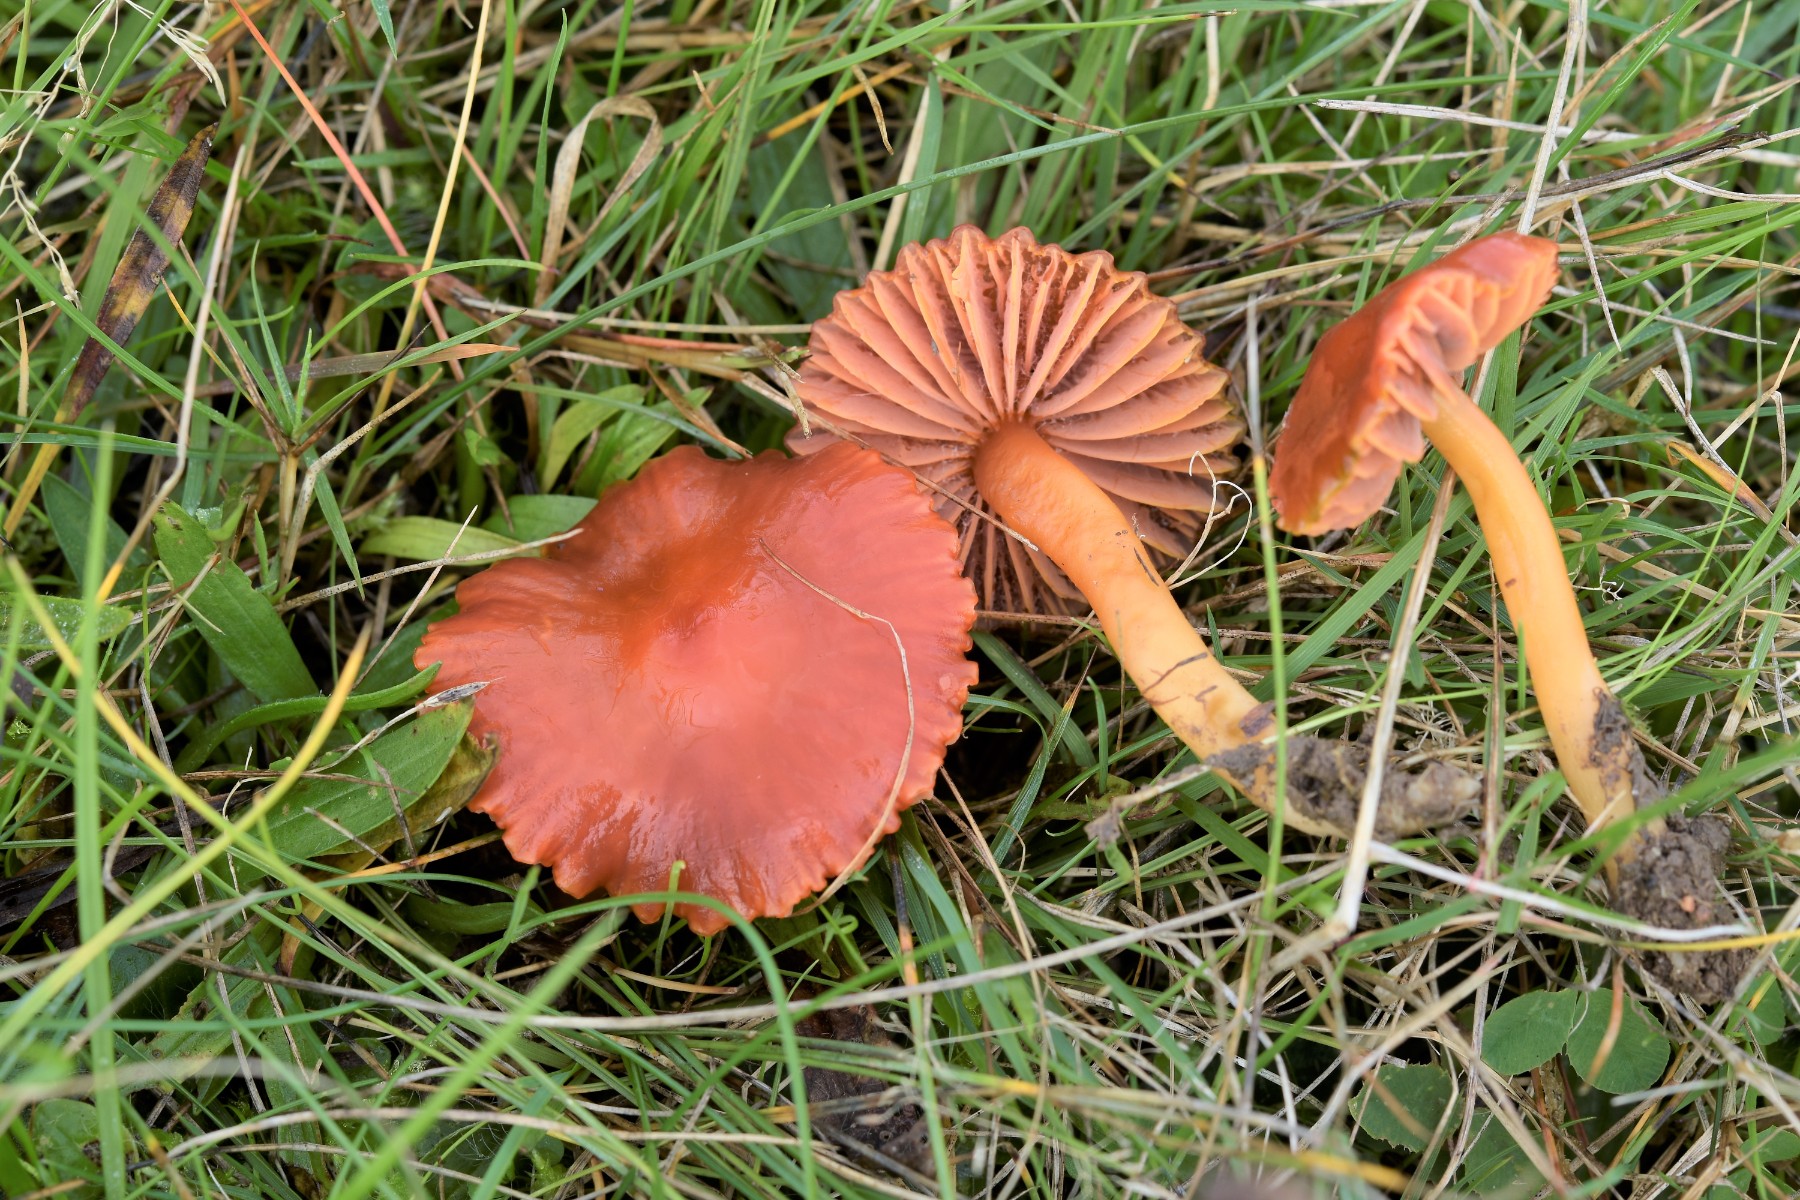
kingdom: Fungi
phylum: Basidiomycota
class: Agaricomycetes
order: Agaricales
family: Hygrophoraceae
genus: Gliophorus
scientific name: Gliophorus europerplexus
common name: Butterscotch waxcap
